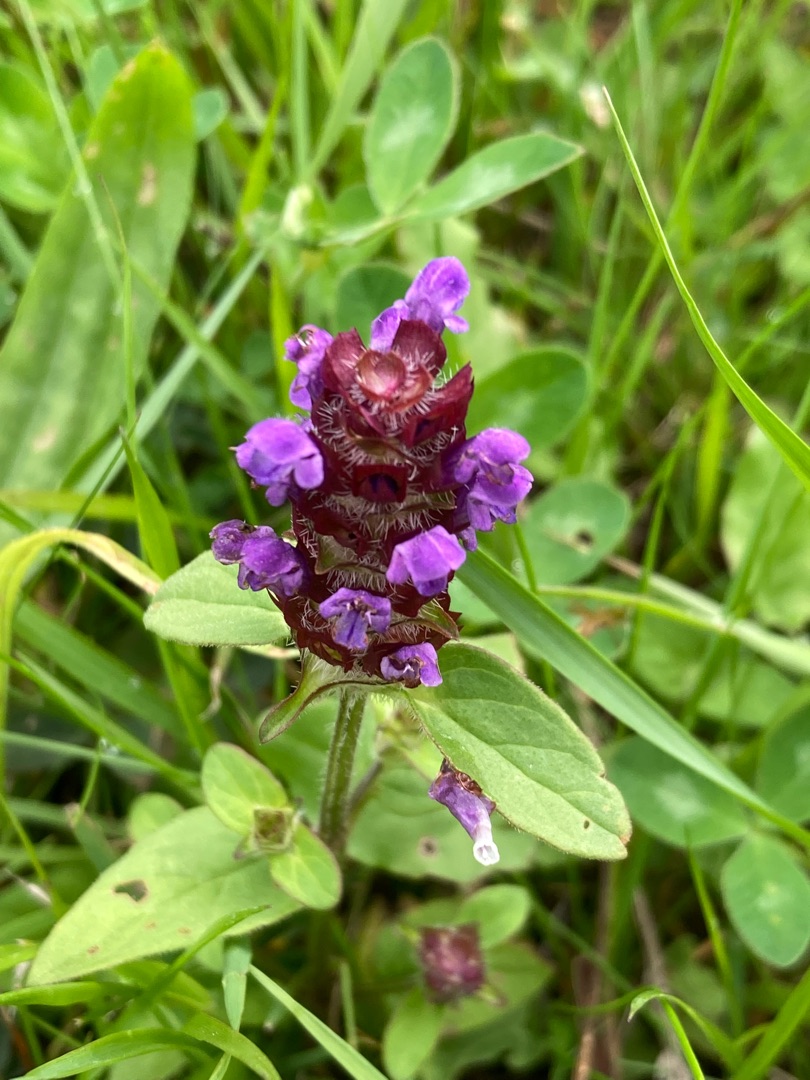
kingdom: Plantae
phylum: Tracheophyta
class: Magnoliopsida
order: Lamiales
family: Lamiaceae
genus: Prunella
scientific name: Prunella vulgaris
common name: Almindelig brunelle
